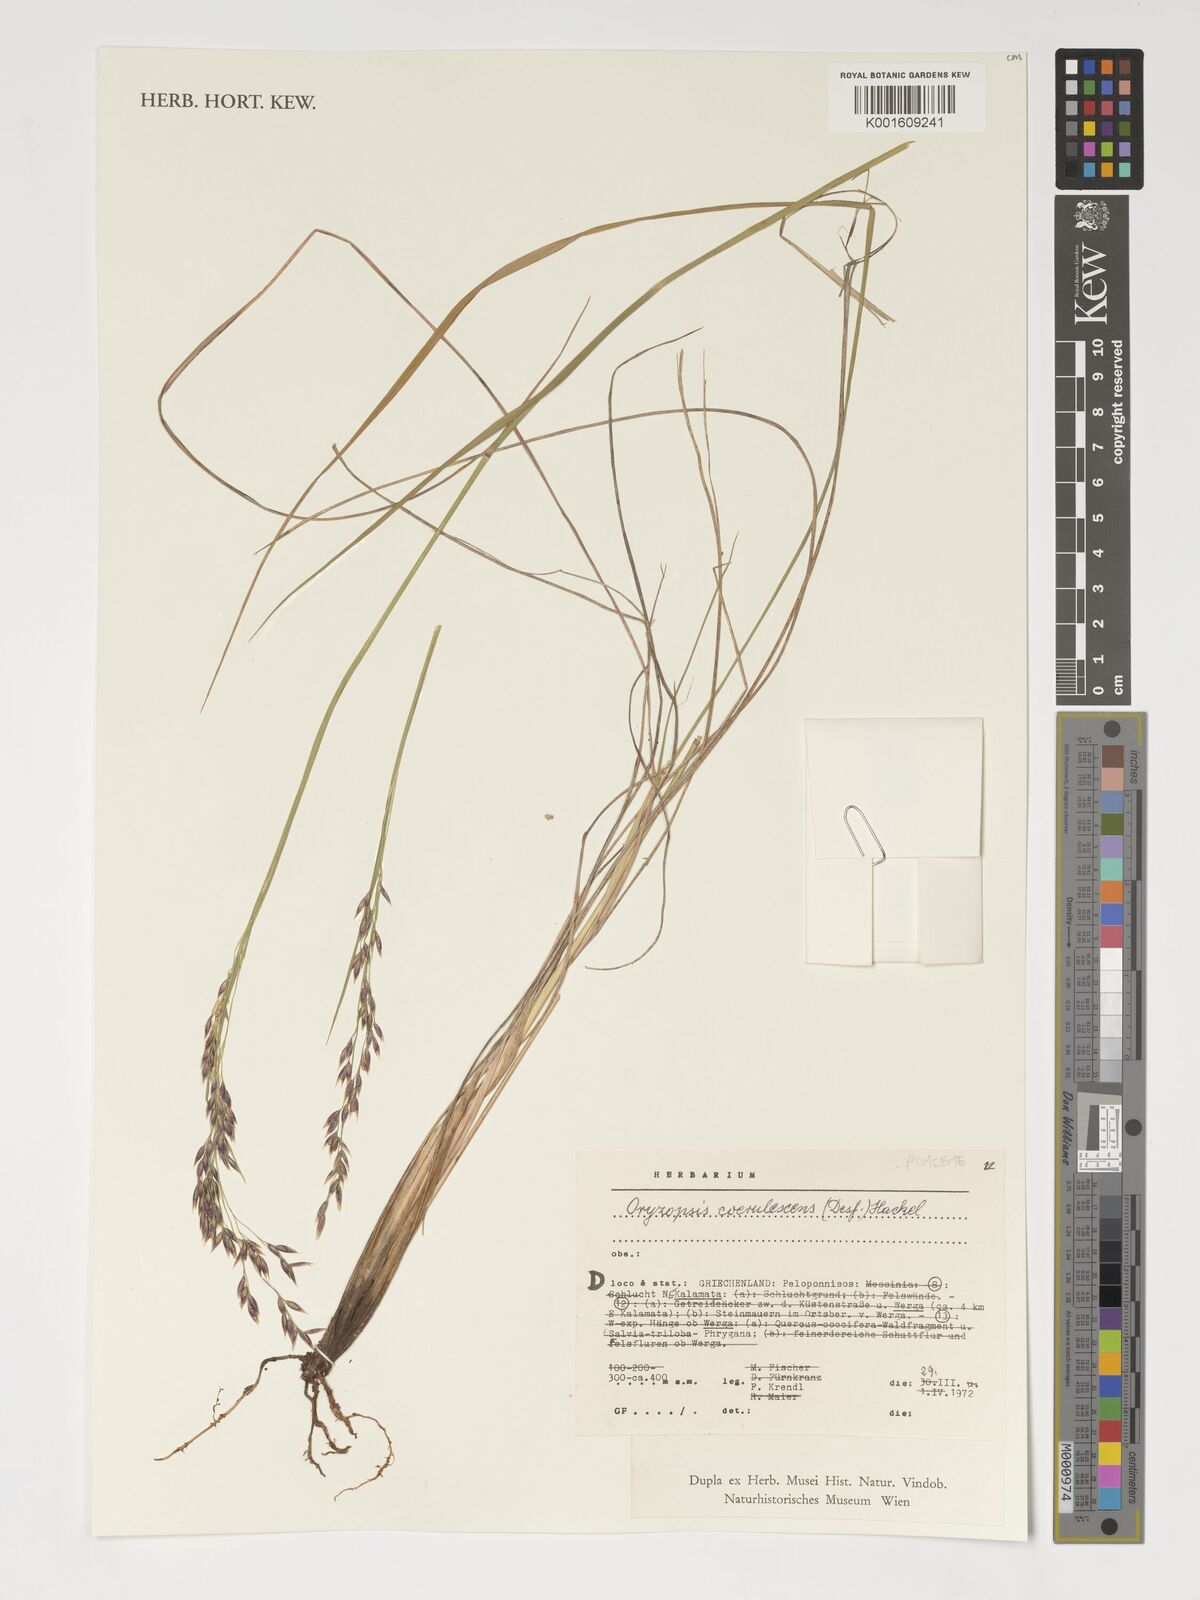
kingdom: Plantae
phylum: Tracheophyta
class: Liliopsida
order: Poales
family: Poaceae
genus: Piptatherum
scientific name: Piptatherum coerulescens
